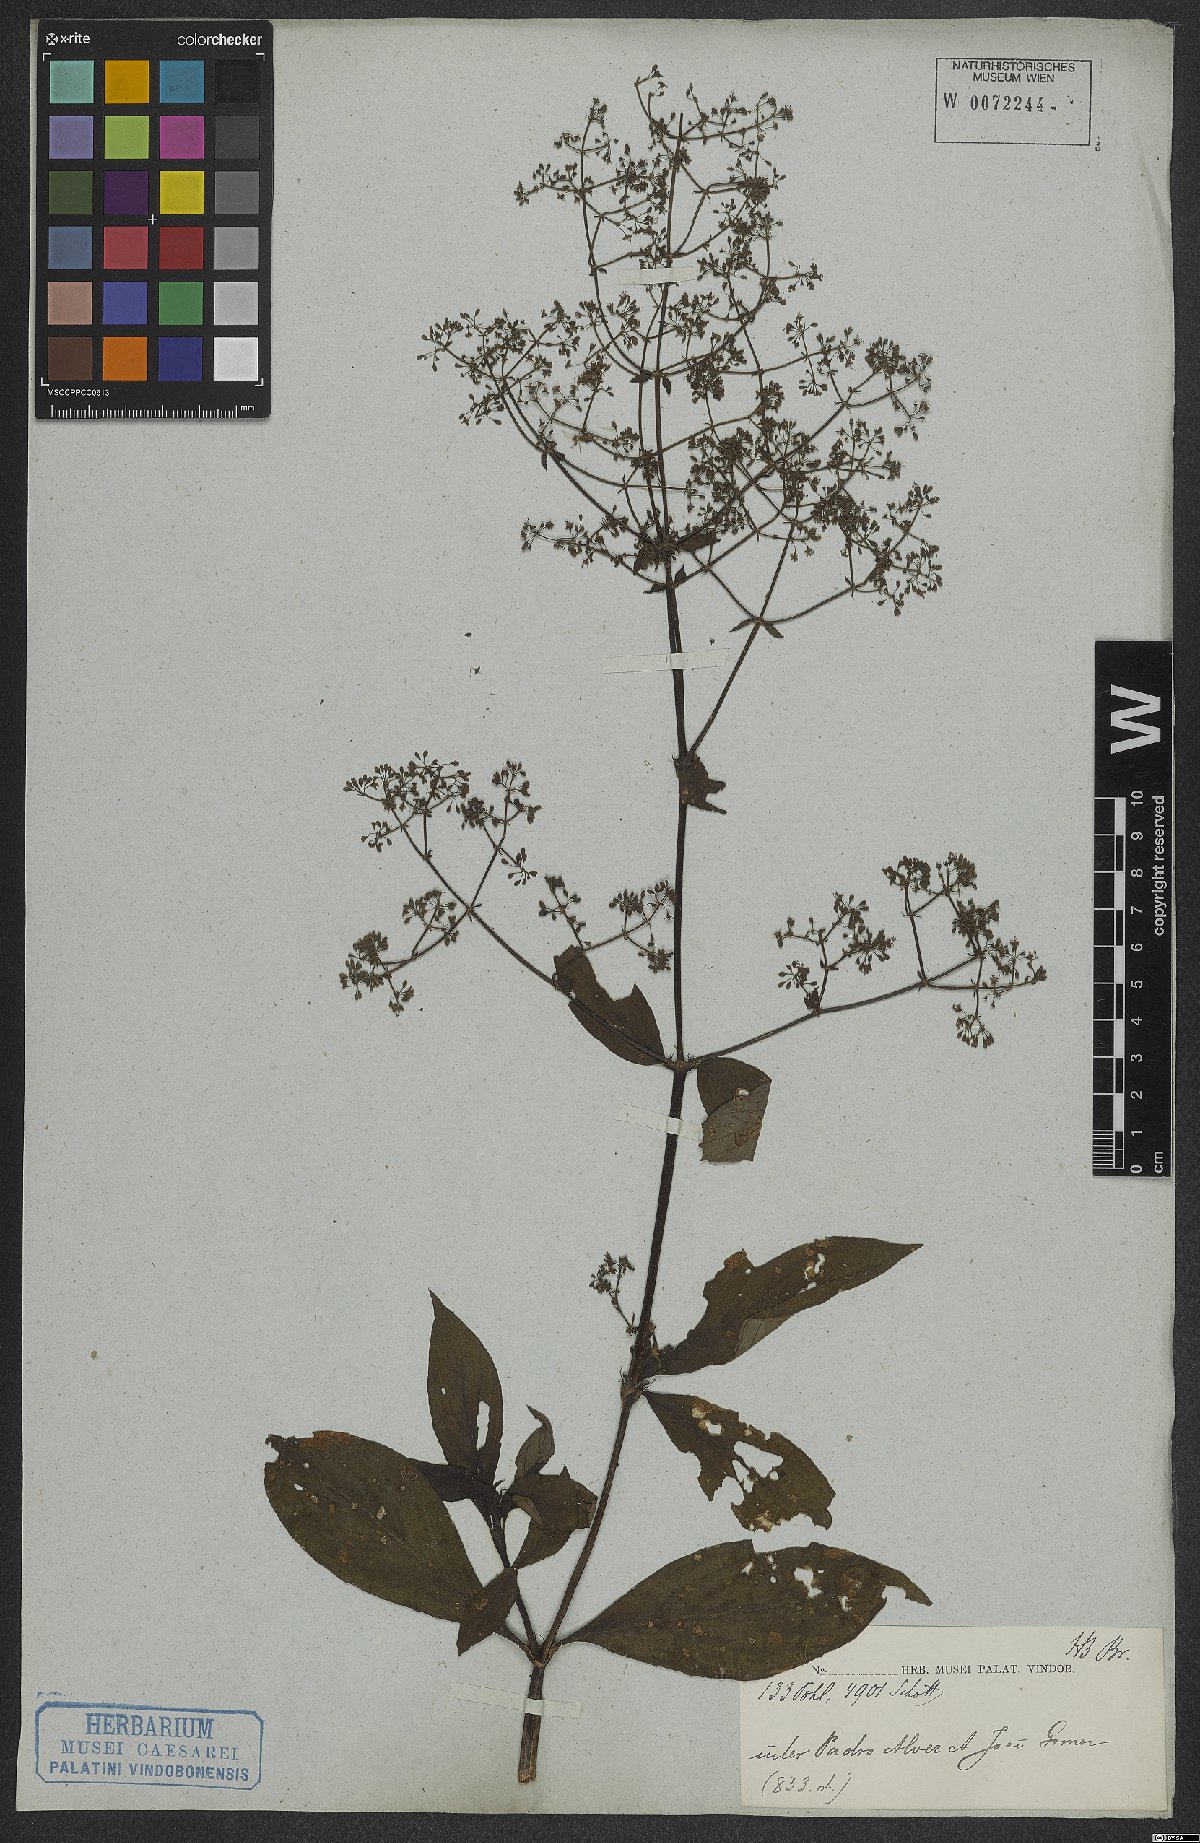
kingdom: Plantae
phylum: Tracheophyta
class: Magnoliopsida
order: Gentianales
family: Rubiaceae
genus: Emmeorhiza
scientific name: Emmeorhiza
